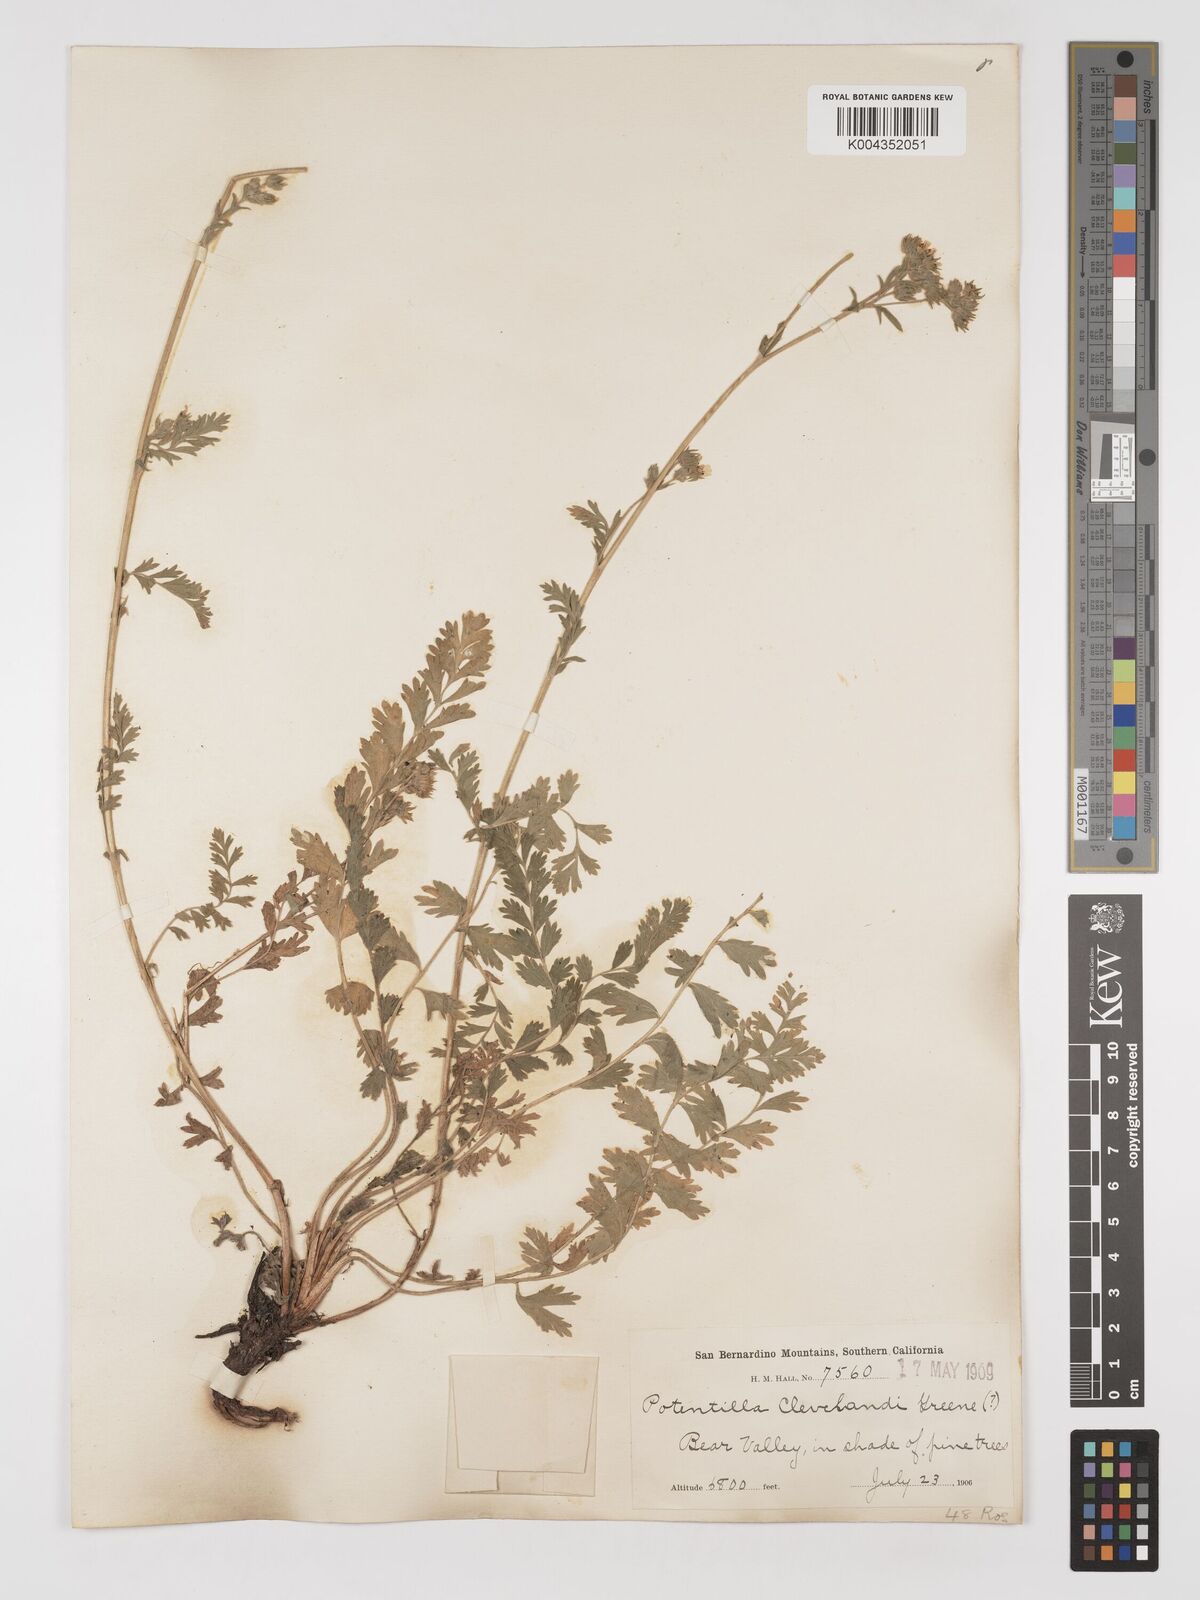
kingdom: Plantae
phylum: Tracheophyta
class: Magnoliopsida
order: Rosales
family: Rosaceae
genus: Potentilla
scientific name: Potentilla clevelandii
